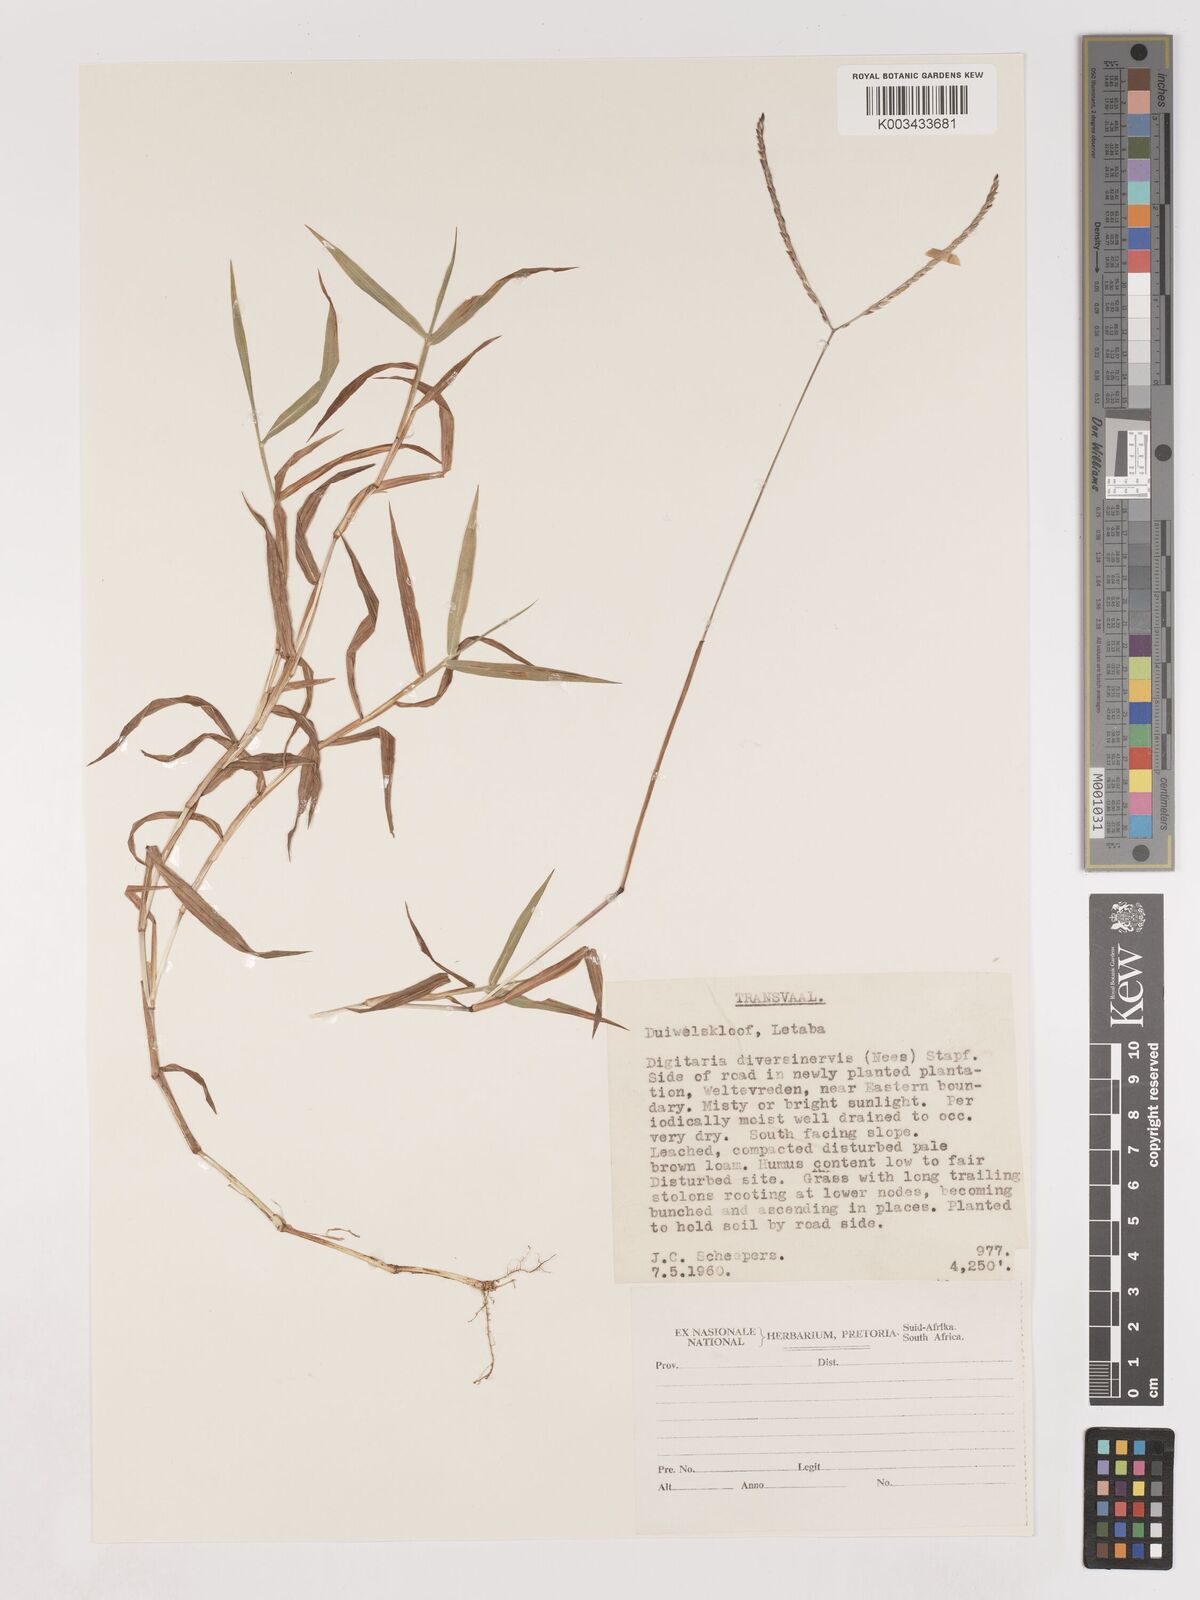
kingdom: Plantae
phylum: Tracheophyta
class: Liliopsida
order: Poales
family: Poaceae
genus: Digitaria
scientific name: Digitaria diversinervis
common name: Richmond finger grass
